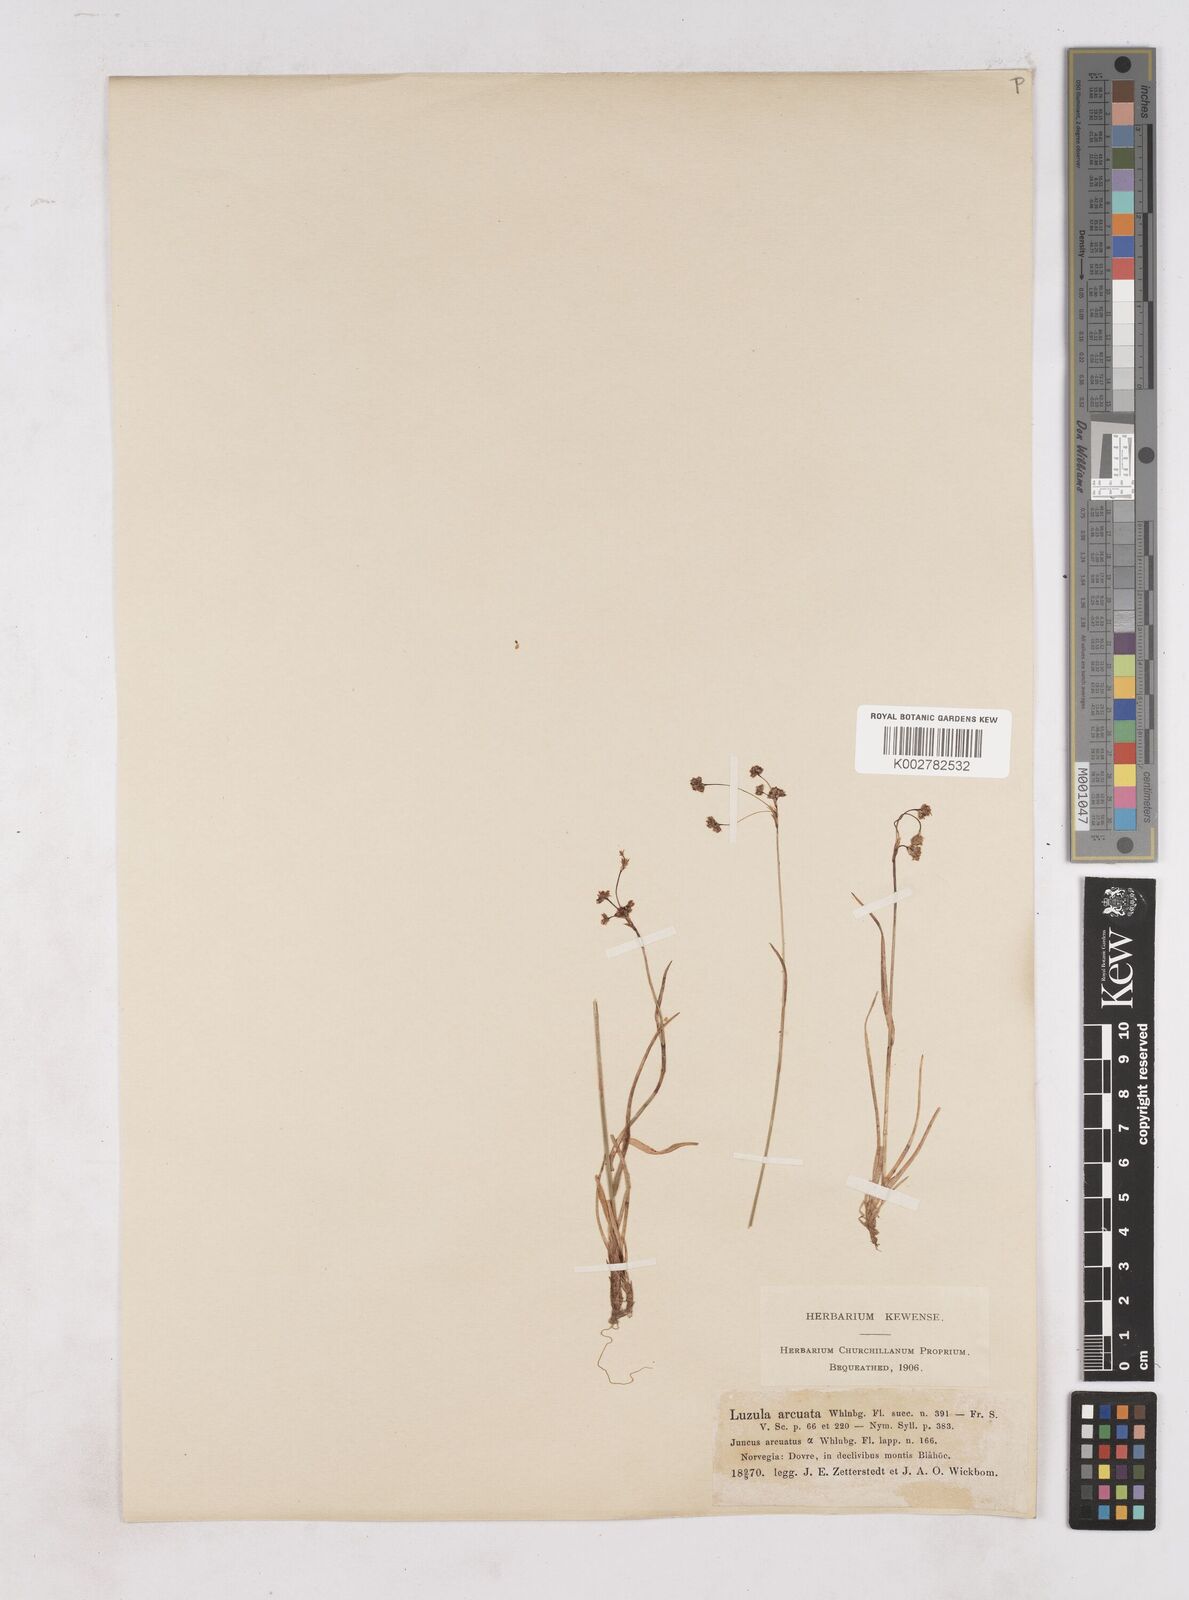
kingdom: Plantae
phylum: Tracheophyta
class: Liliopsida
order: Poales
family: Juncaceae
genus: Luzula
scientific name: Luzula arcuata
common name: Curved wood-rush
